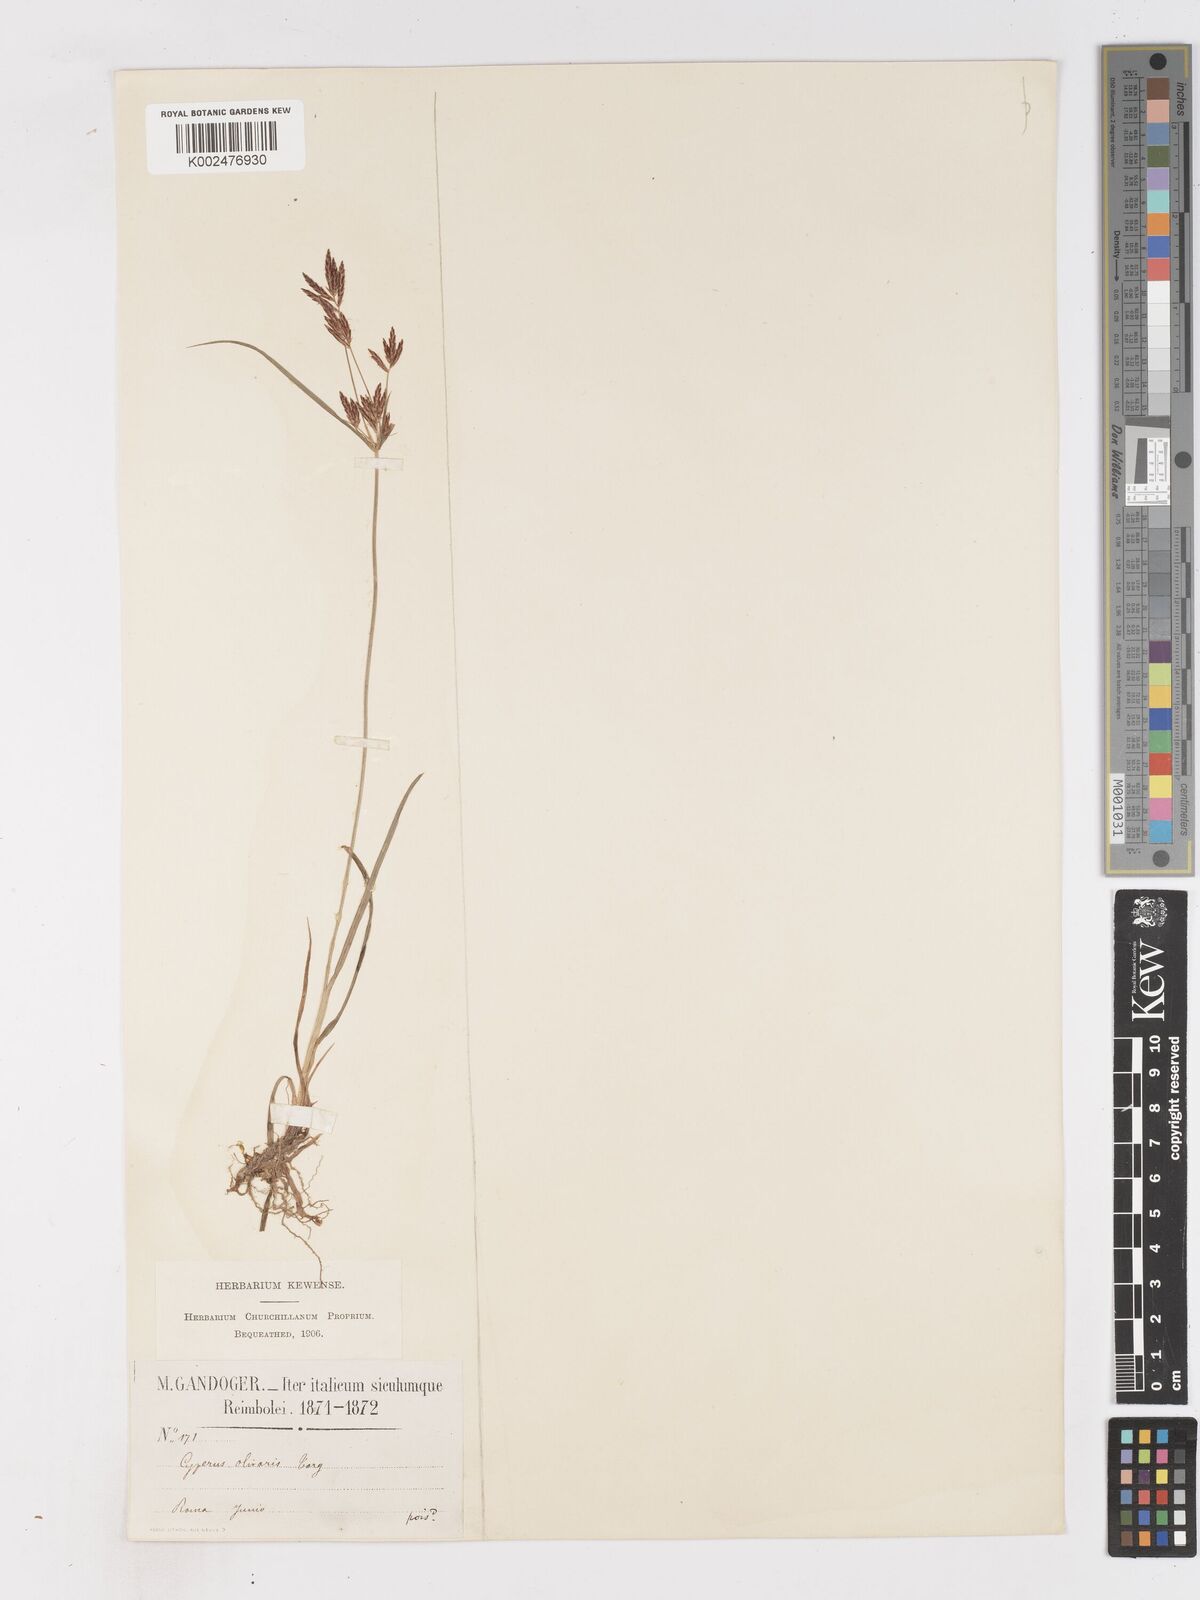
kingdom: Plantae
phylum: Tracheophyta
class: Liliopsida
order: Poales
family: Cyperaceae
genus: Cyperus
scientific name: Cyperus rotundus
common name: Nutgrass
